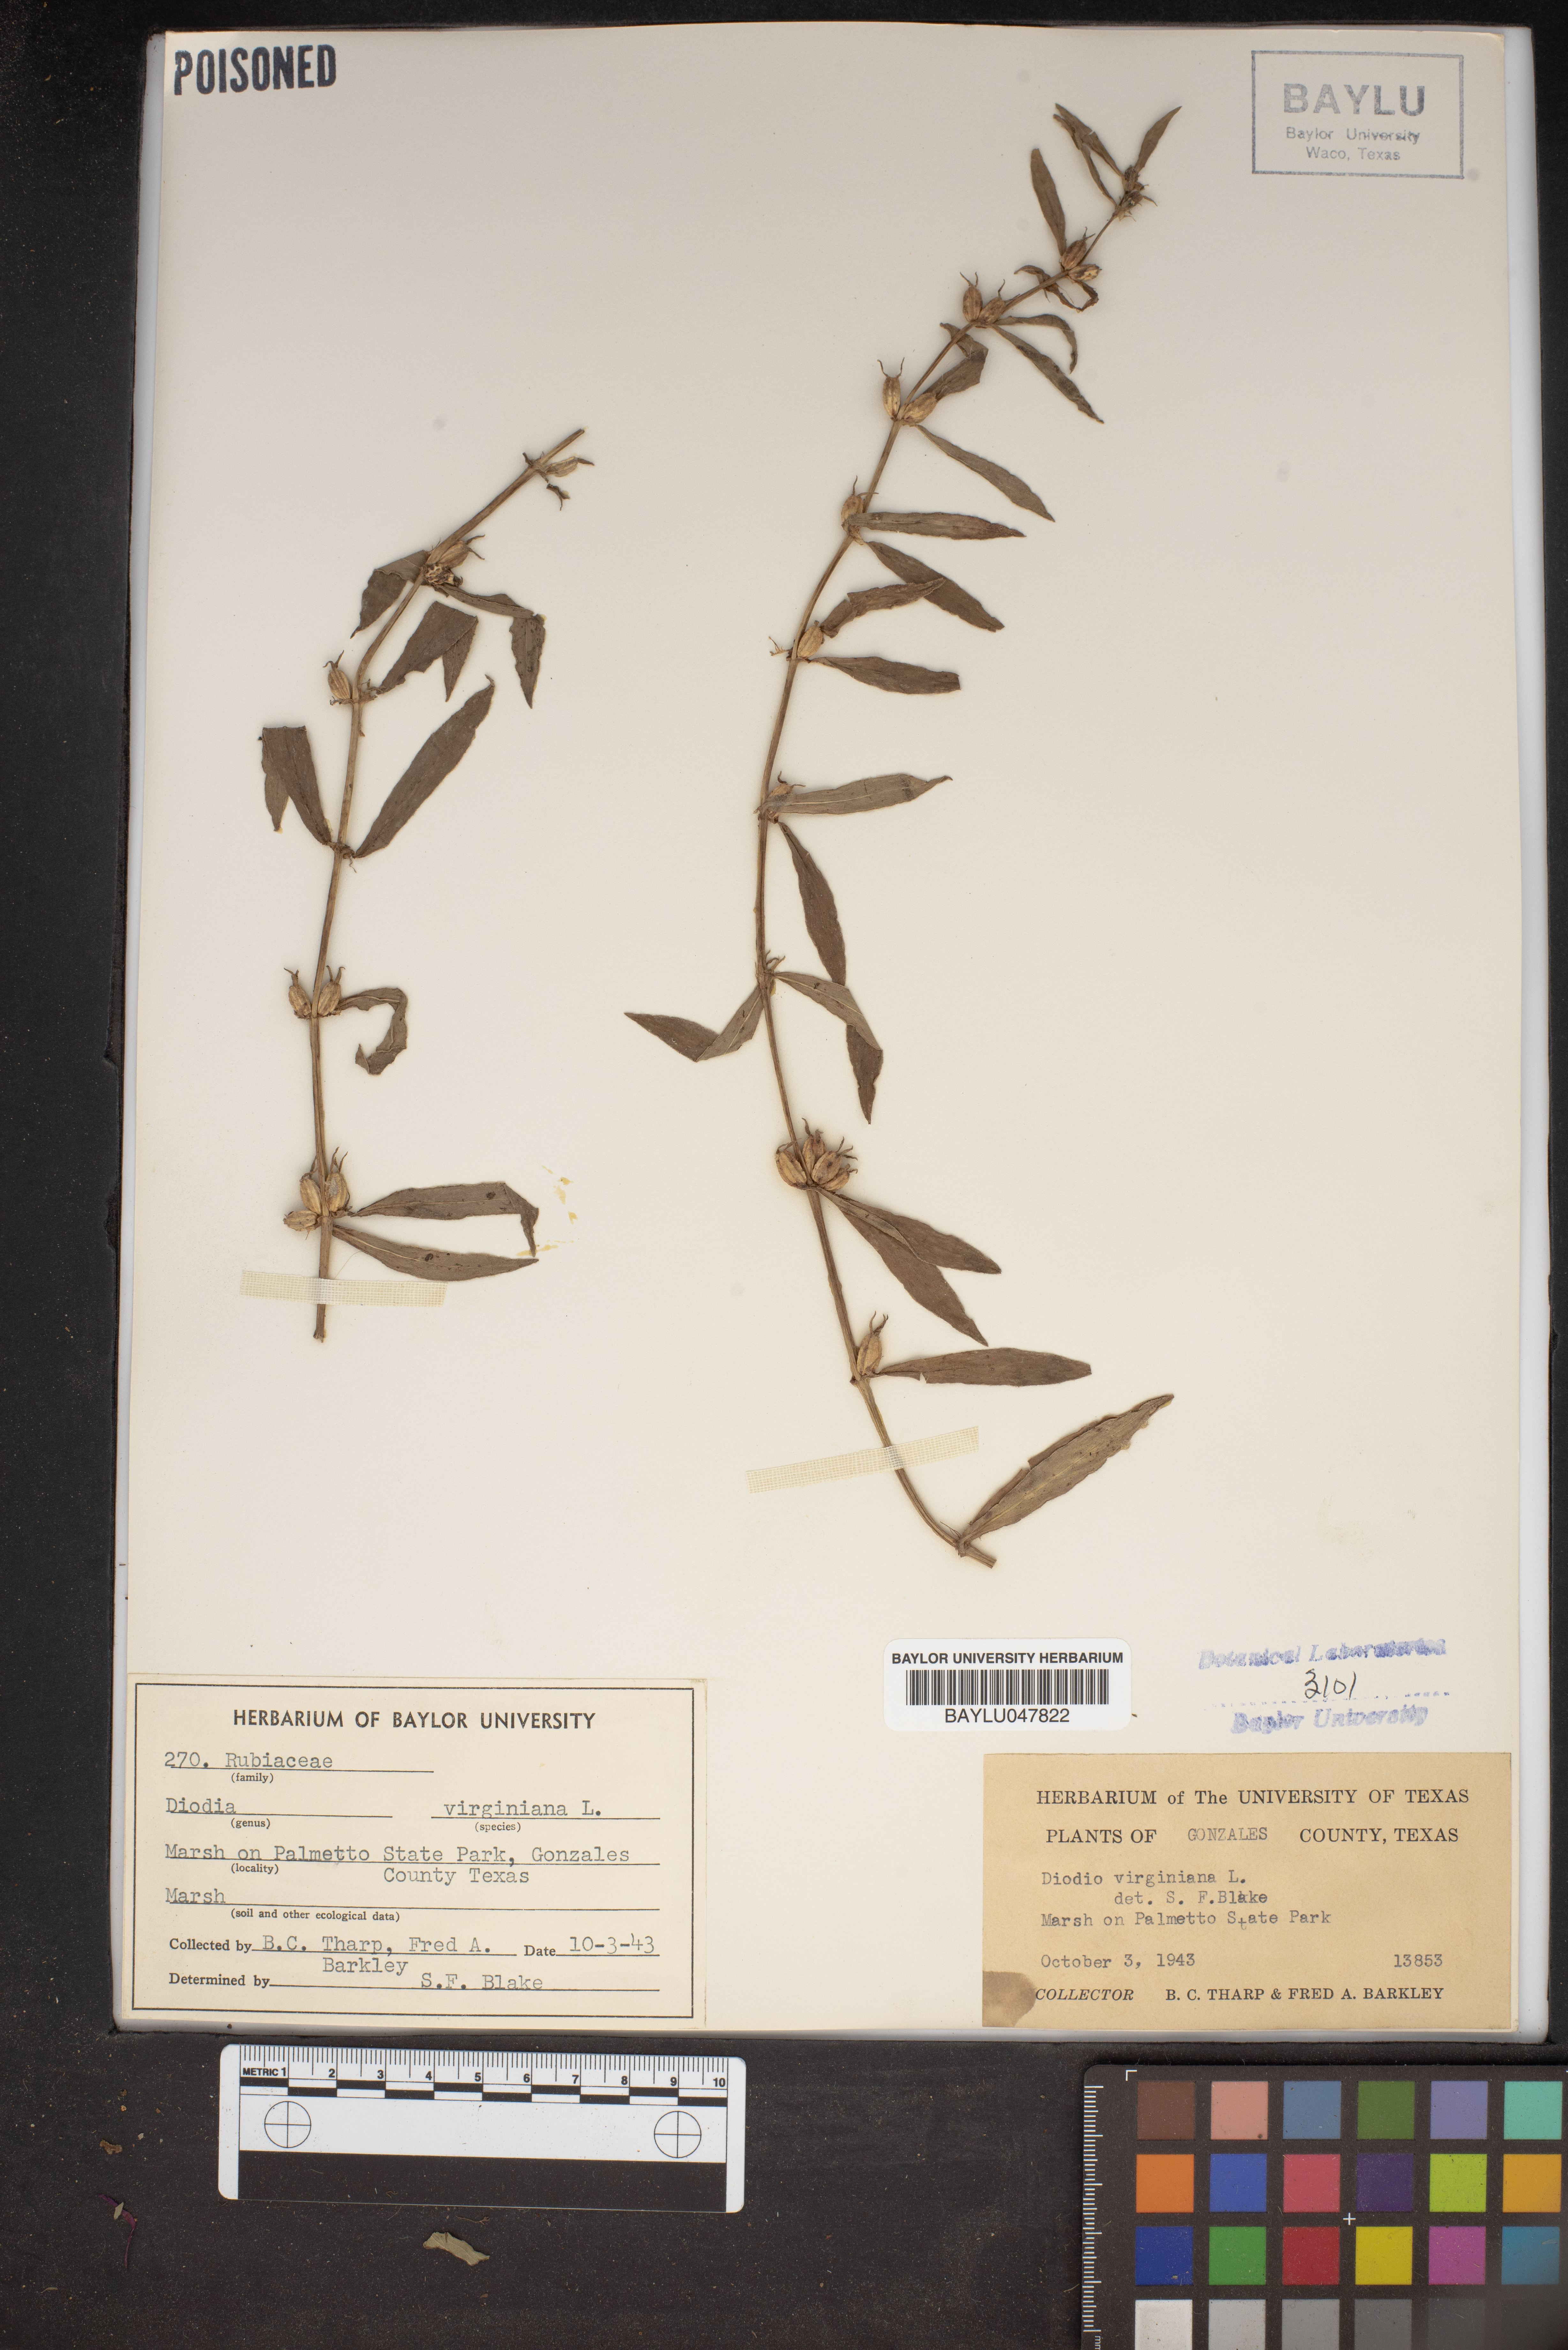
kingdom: Plantae
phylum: Tracheophyta
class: Magnoliopsida
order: Gentianales
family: Rubiaceae
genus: Diodia
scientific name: Diodia virginiana
